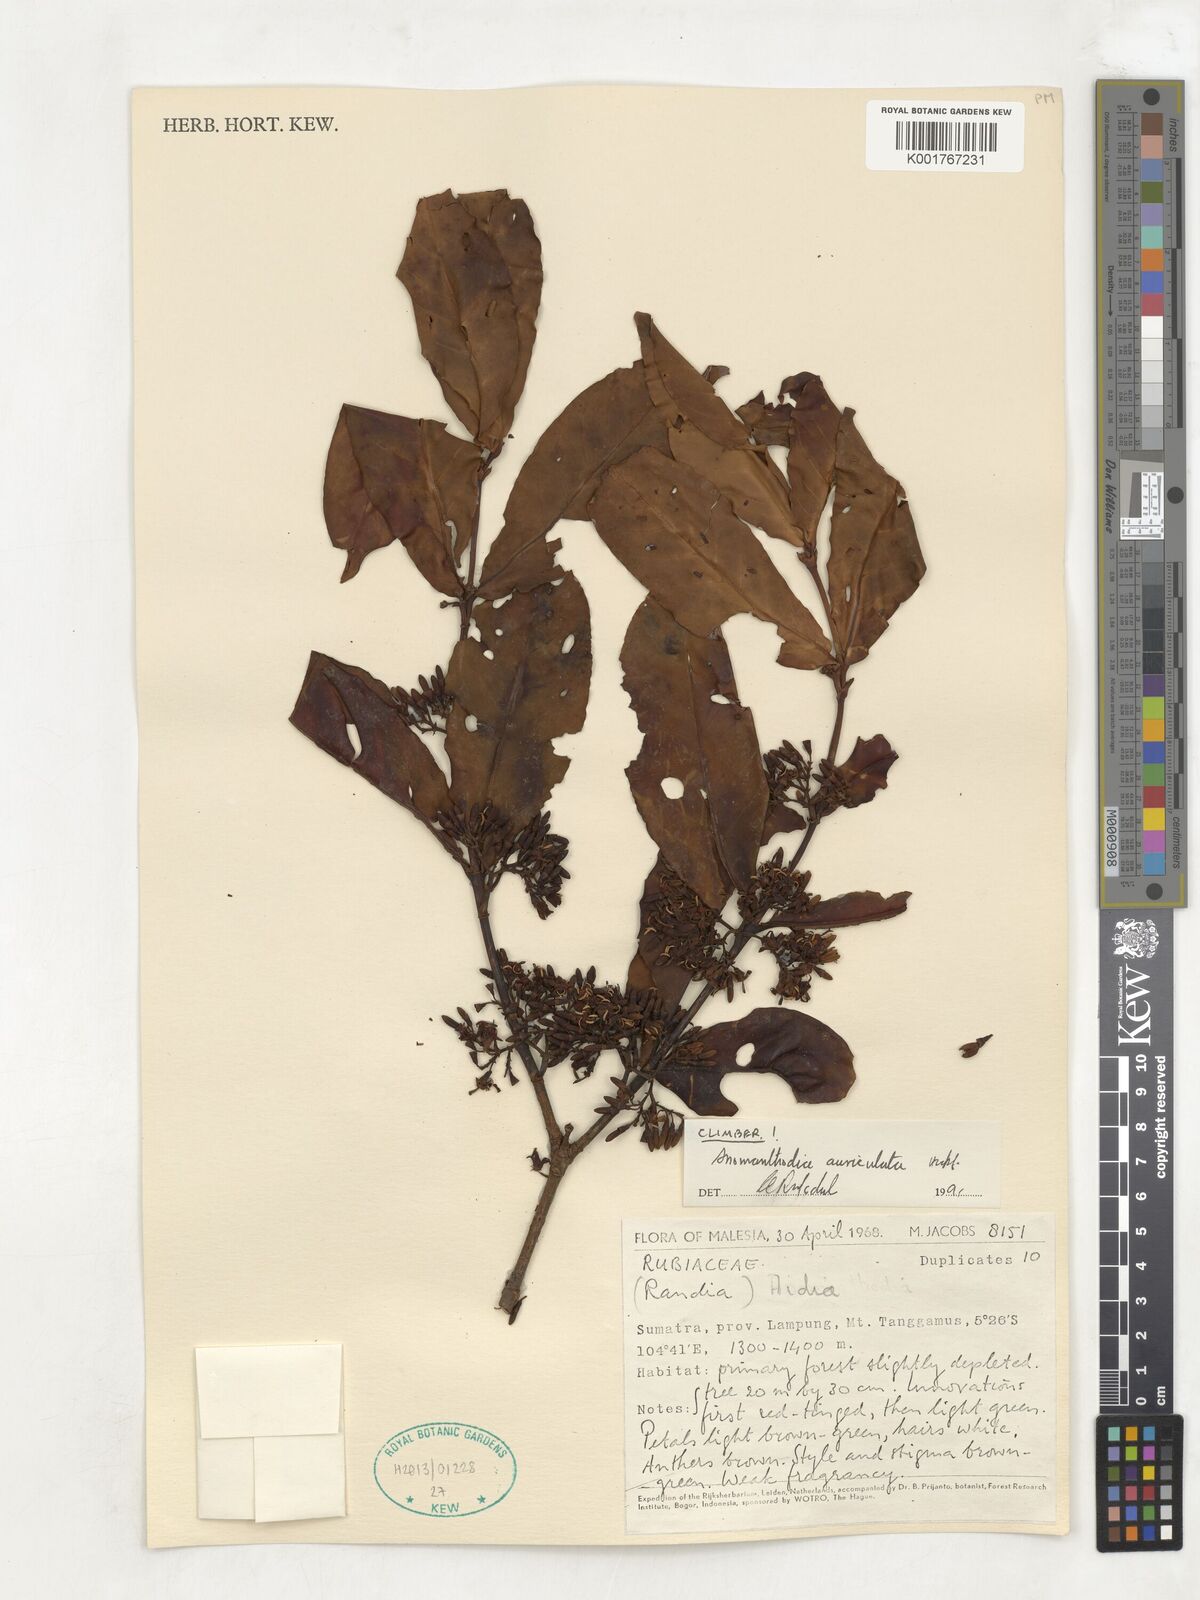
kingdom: Plantae
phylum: Tracheophyta
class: Magnoliopsida
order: Gentianales
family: Rubiaceae
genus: Aidia
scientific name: Aidia auriculata
